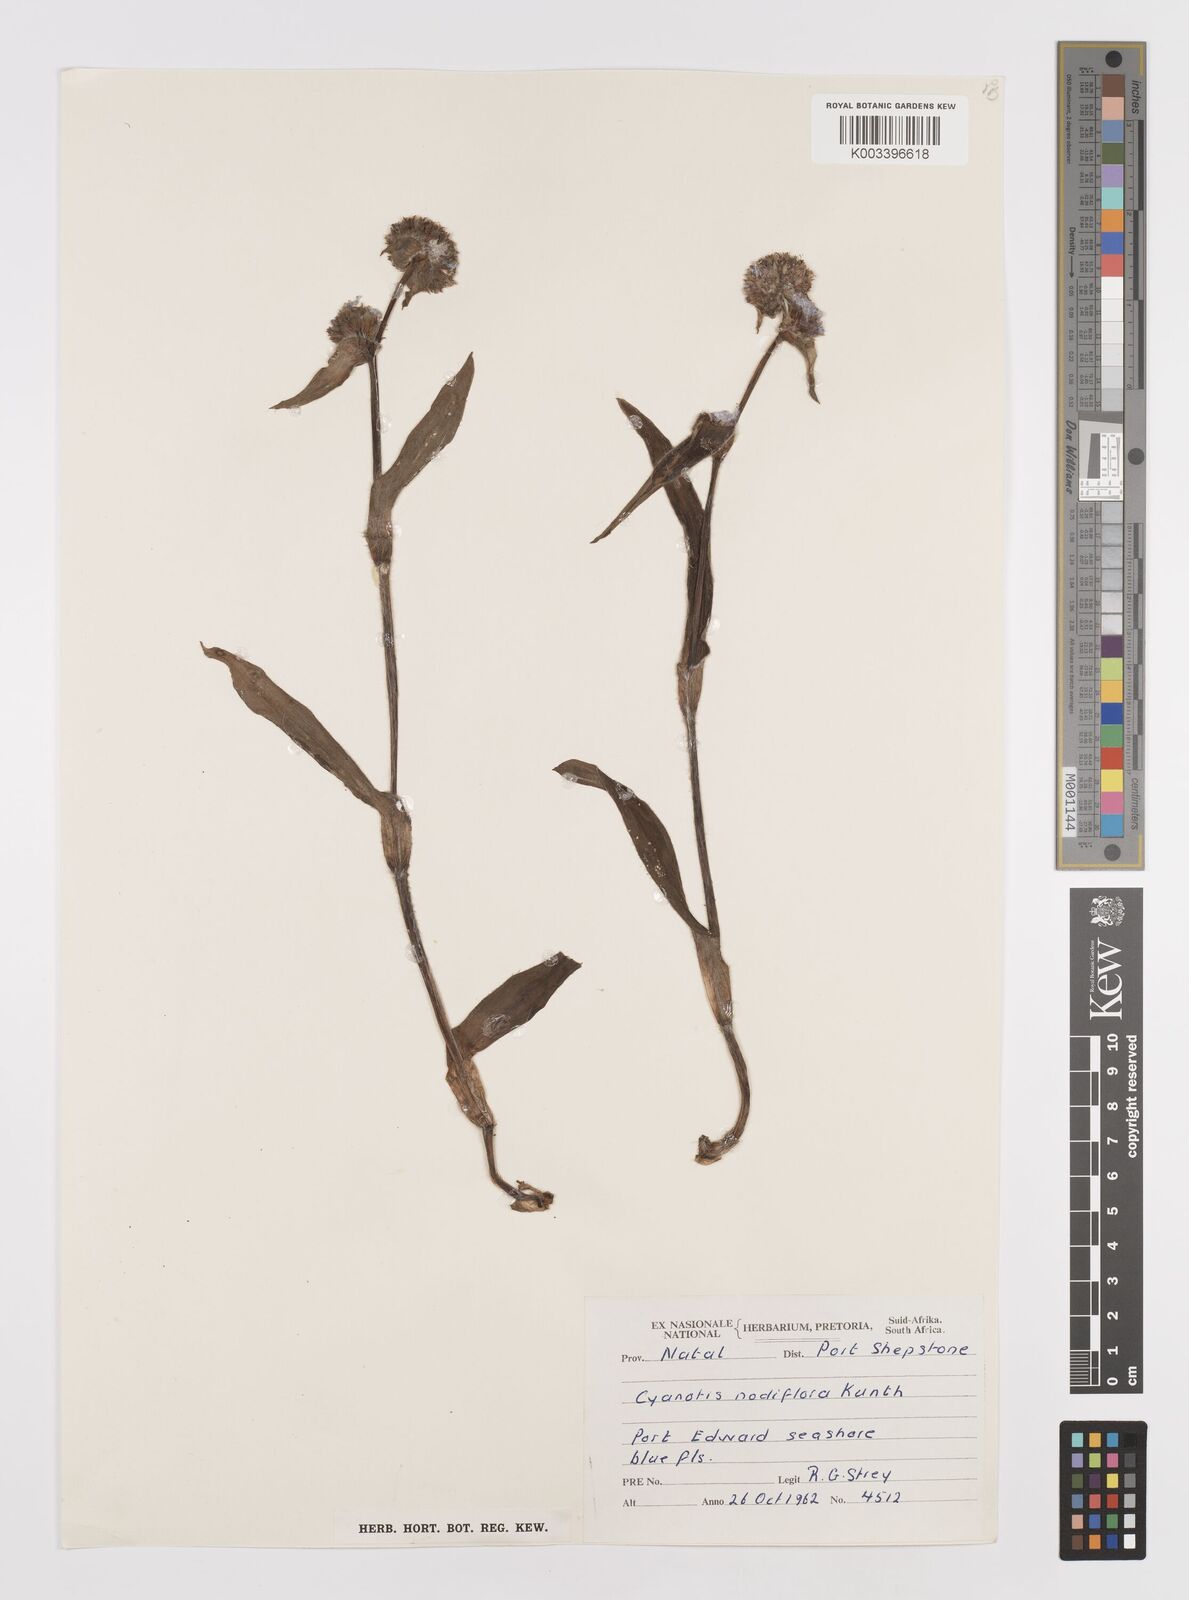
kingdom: Plantae
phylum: Tracheophyta
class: Liliopsida
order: Commelinales
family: Commelinaceae
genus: Cyanotis
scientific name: Cyanotis speciosa
